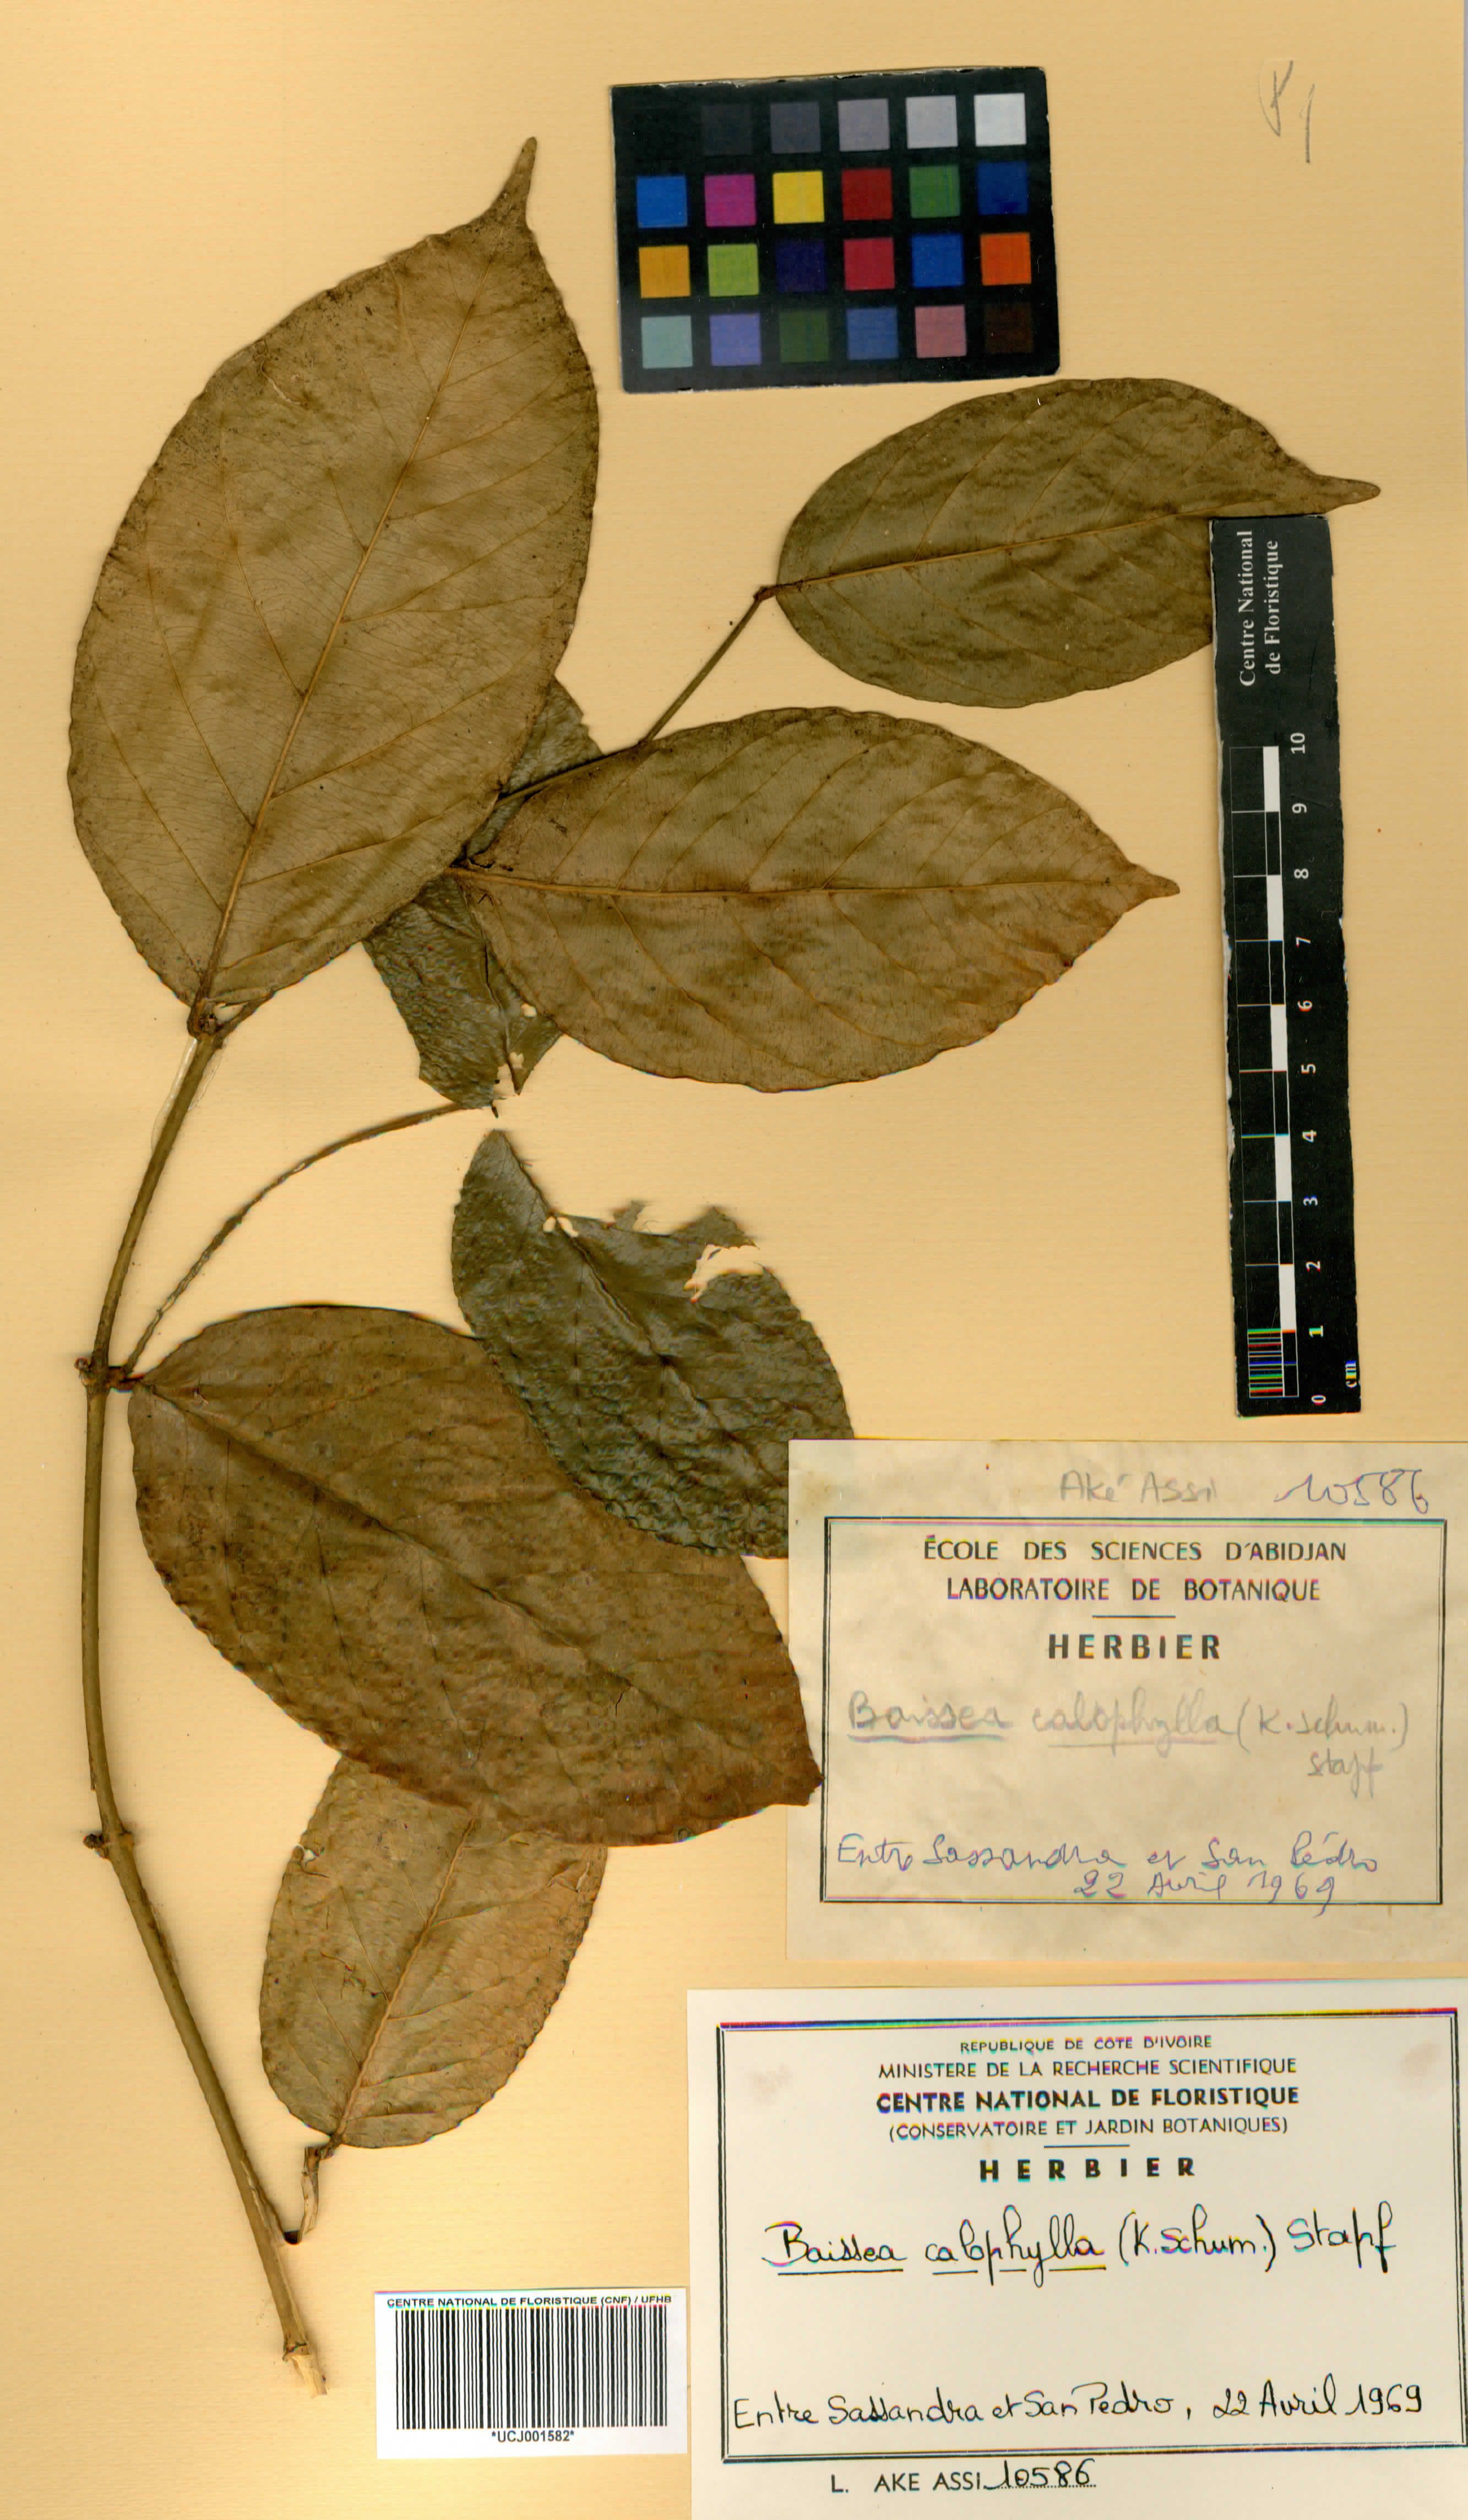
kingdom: Plantae
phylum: Tracheophyta
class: Magnoliopsida
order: Gentianales
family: Apocynaceae
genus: Baissea
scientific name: Baissea welwitschii
